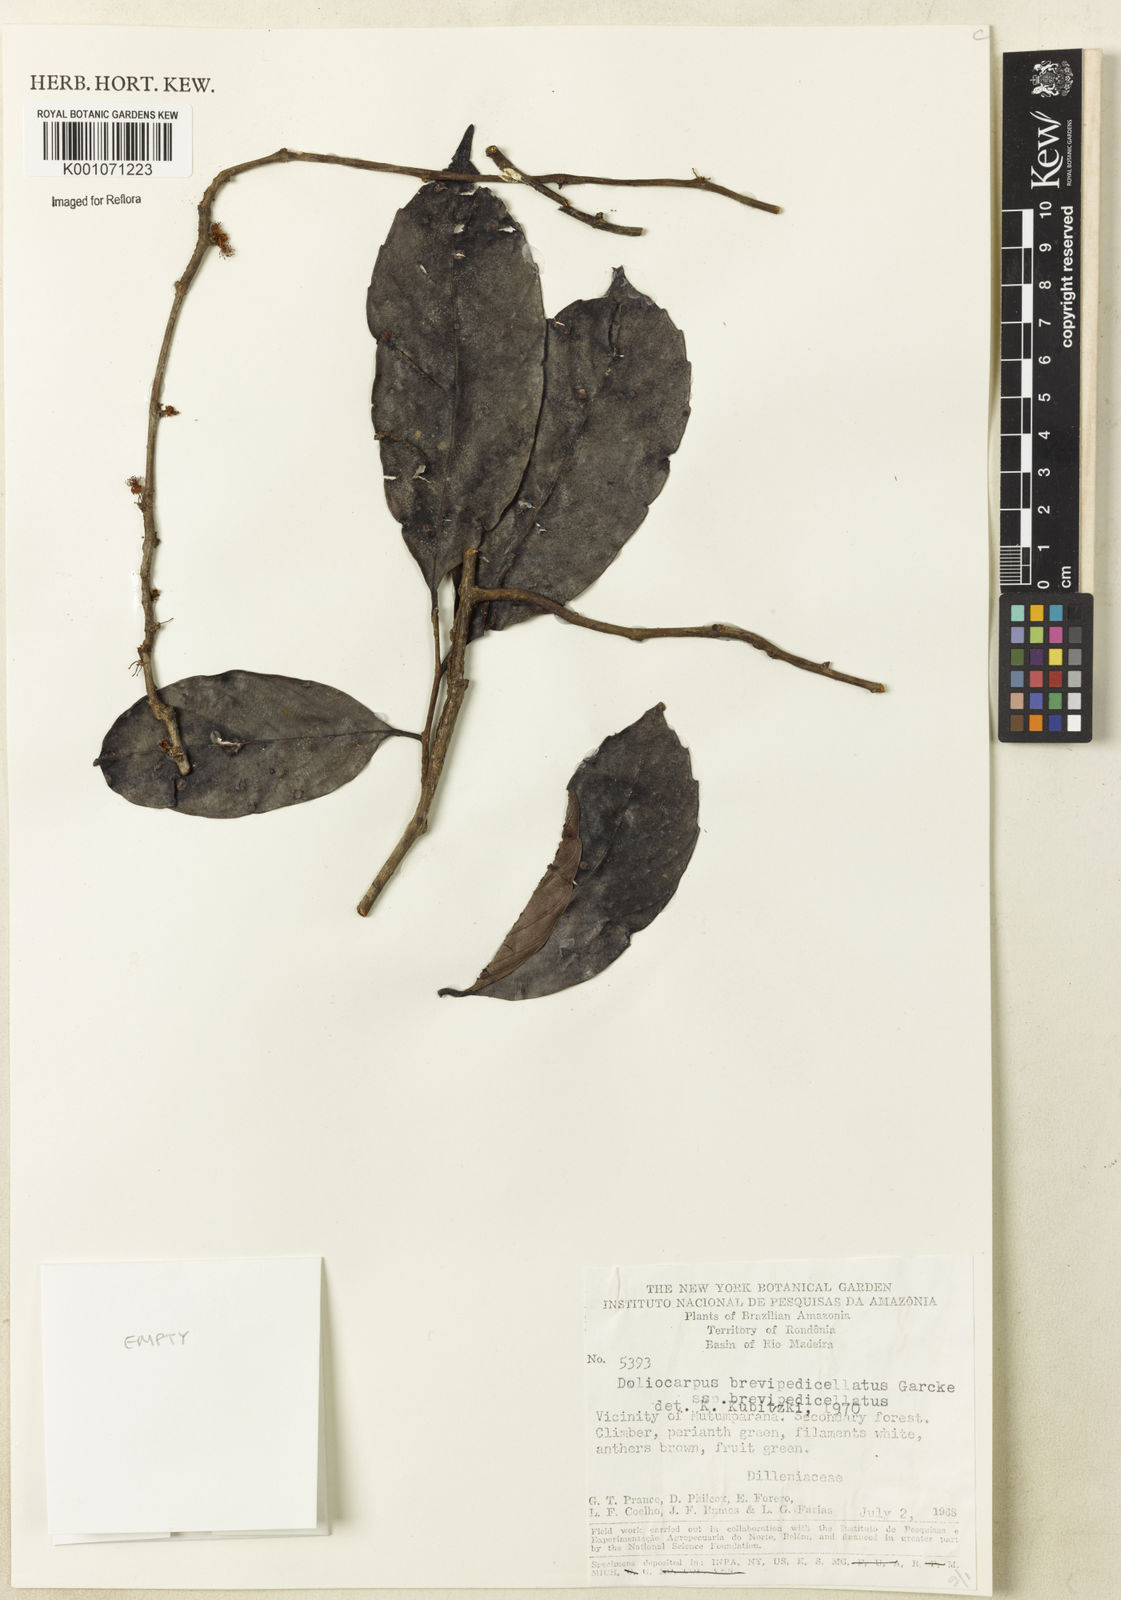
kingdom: Plantae
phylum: Tracheophyta
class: Magnoliopsida
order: Dilleniales
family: Dilleniaceae
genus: Doliocarpus
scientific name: Doliocarpus brevipedicellatus
